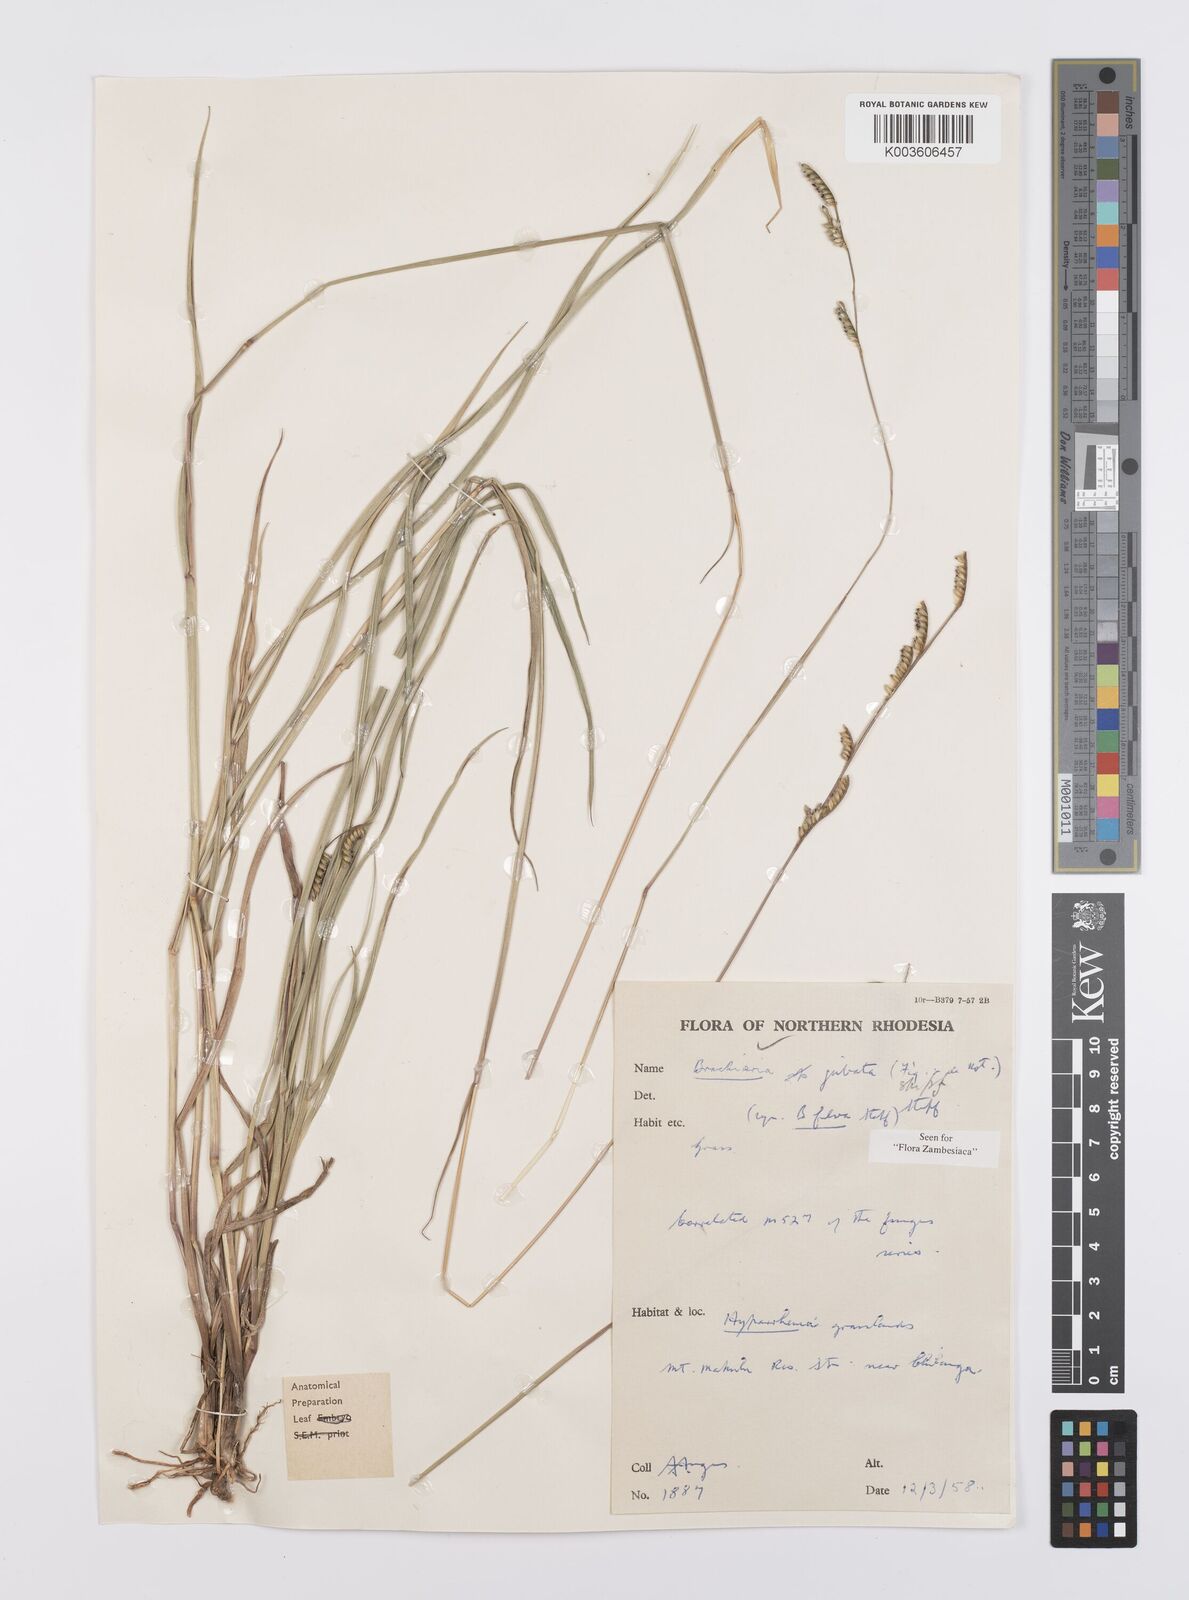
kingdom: Plantae
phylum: Tracheophyta
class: Liliopsida
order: Poales
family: Poaceae
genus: Urochloa
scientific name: Urochloa jubata
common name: Buffalograss
